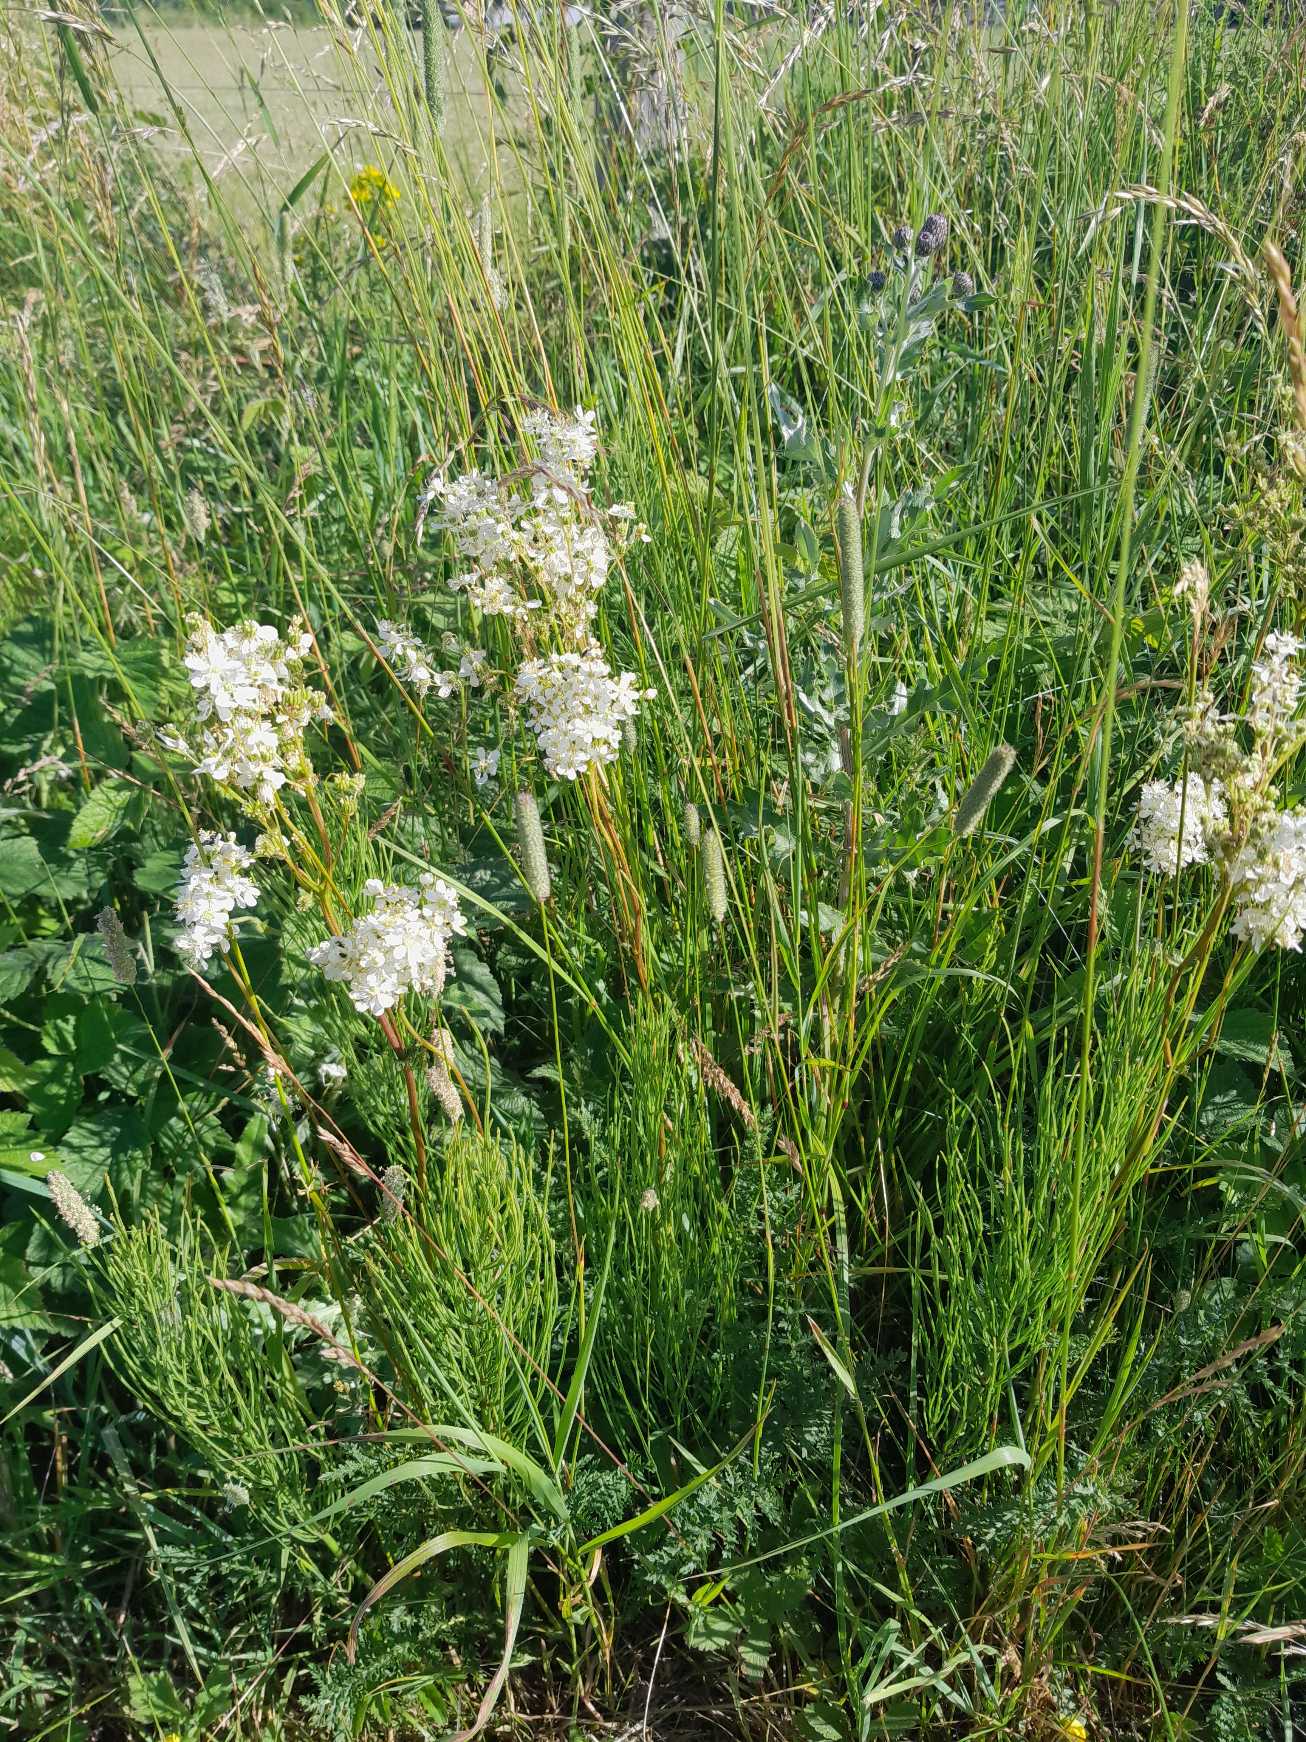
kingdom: Plantae
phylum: Tracheophyta
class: Magnoliopsida
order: Rosales
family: Rosaceae
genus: Filipendula
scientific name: Filipendula vulgaris
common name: Knoldet mjødurt
